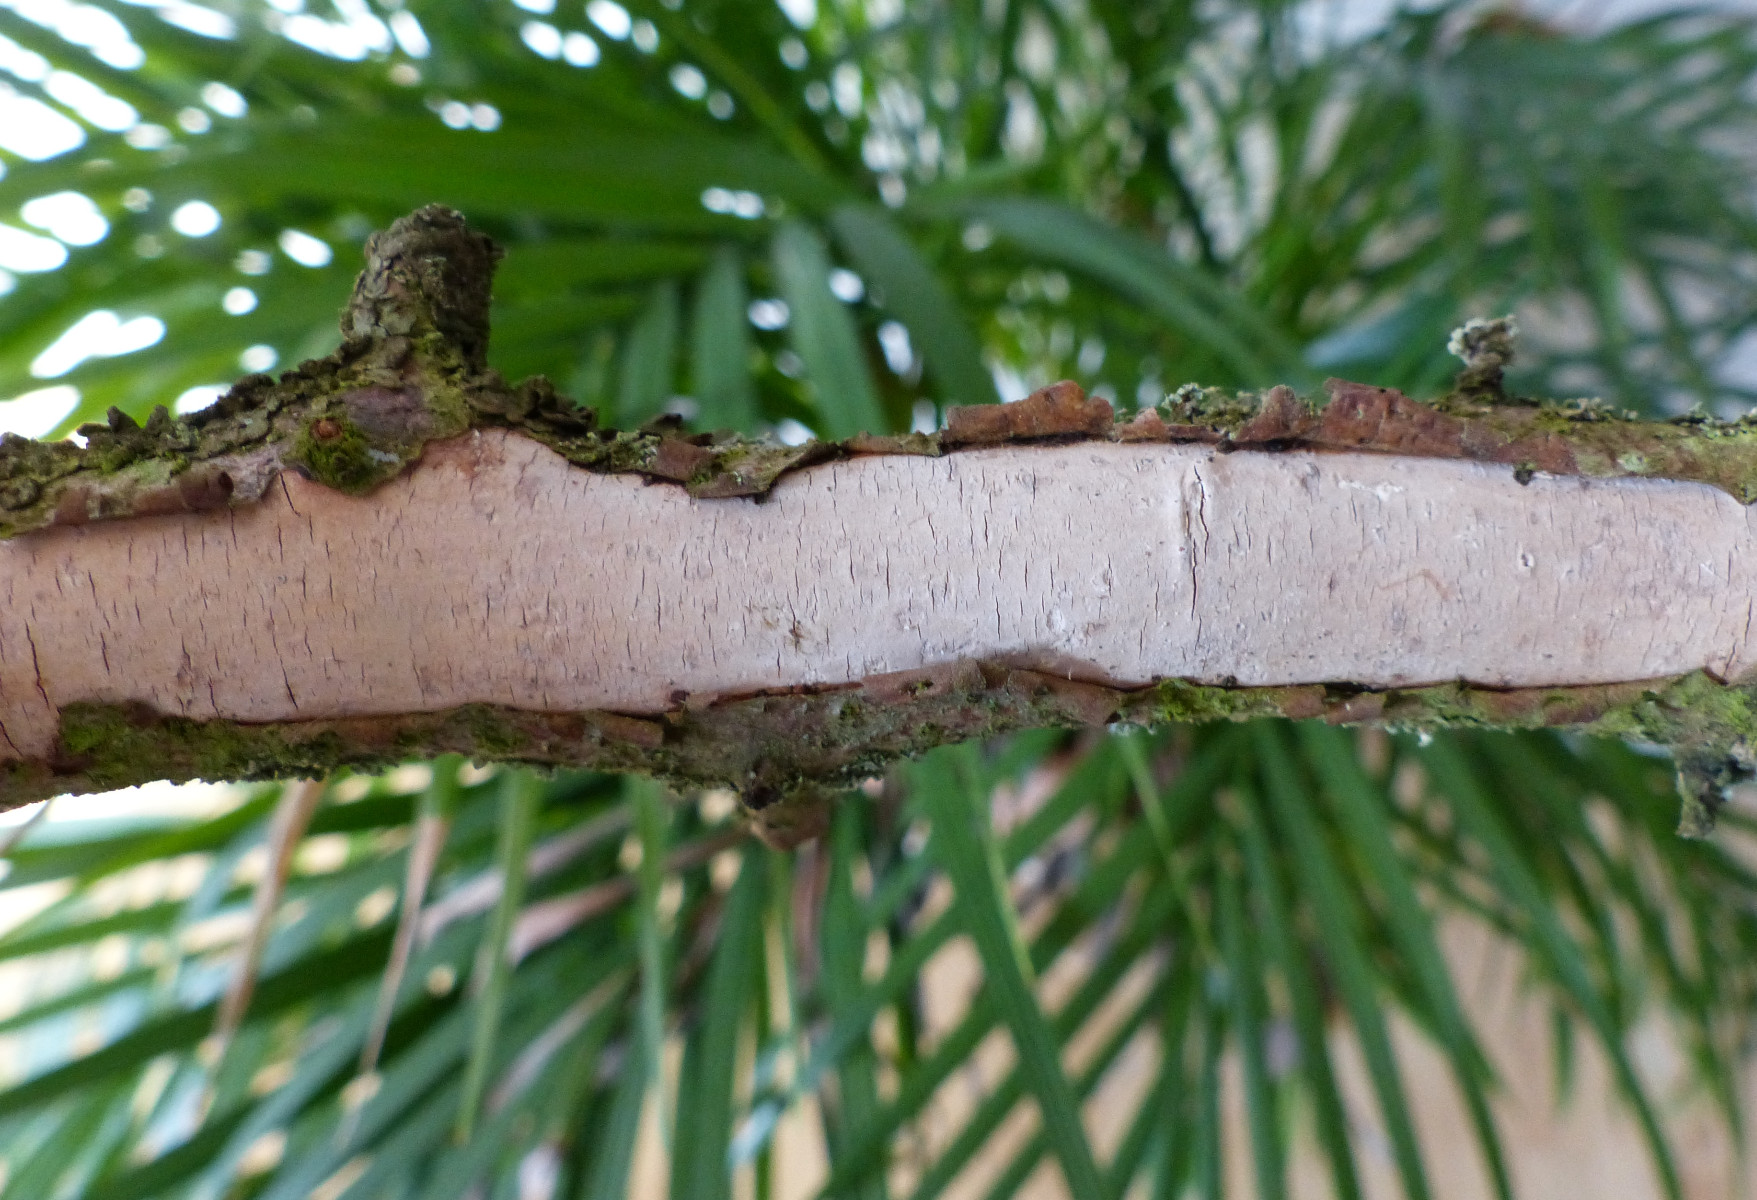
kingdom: Fungi
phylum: Basidiomycota
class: Agaricomycetes
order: Corticiales
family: Vuilleminiaceae
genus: Vuilleminia
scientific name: Vuilleminia cystidiata
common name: tjørne-barksprænger
